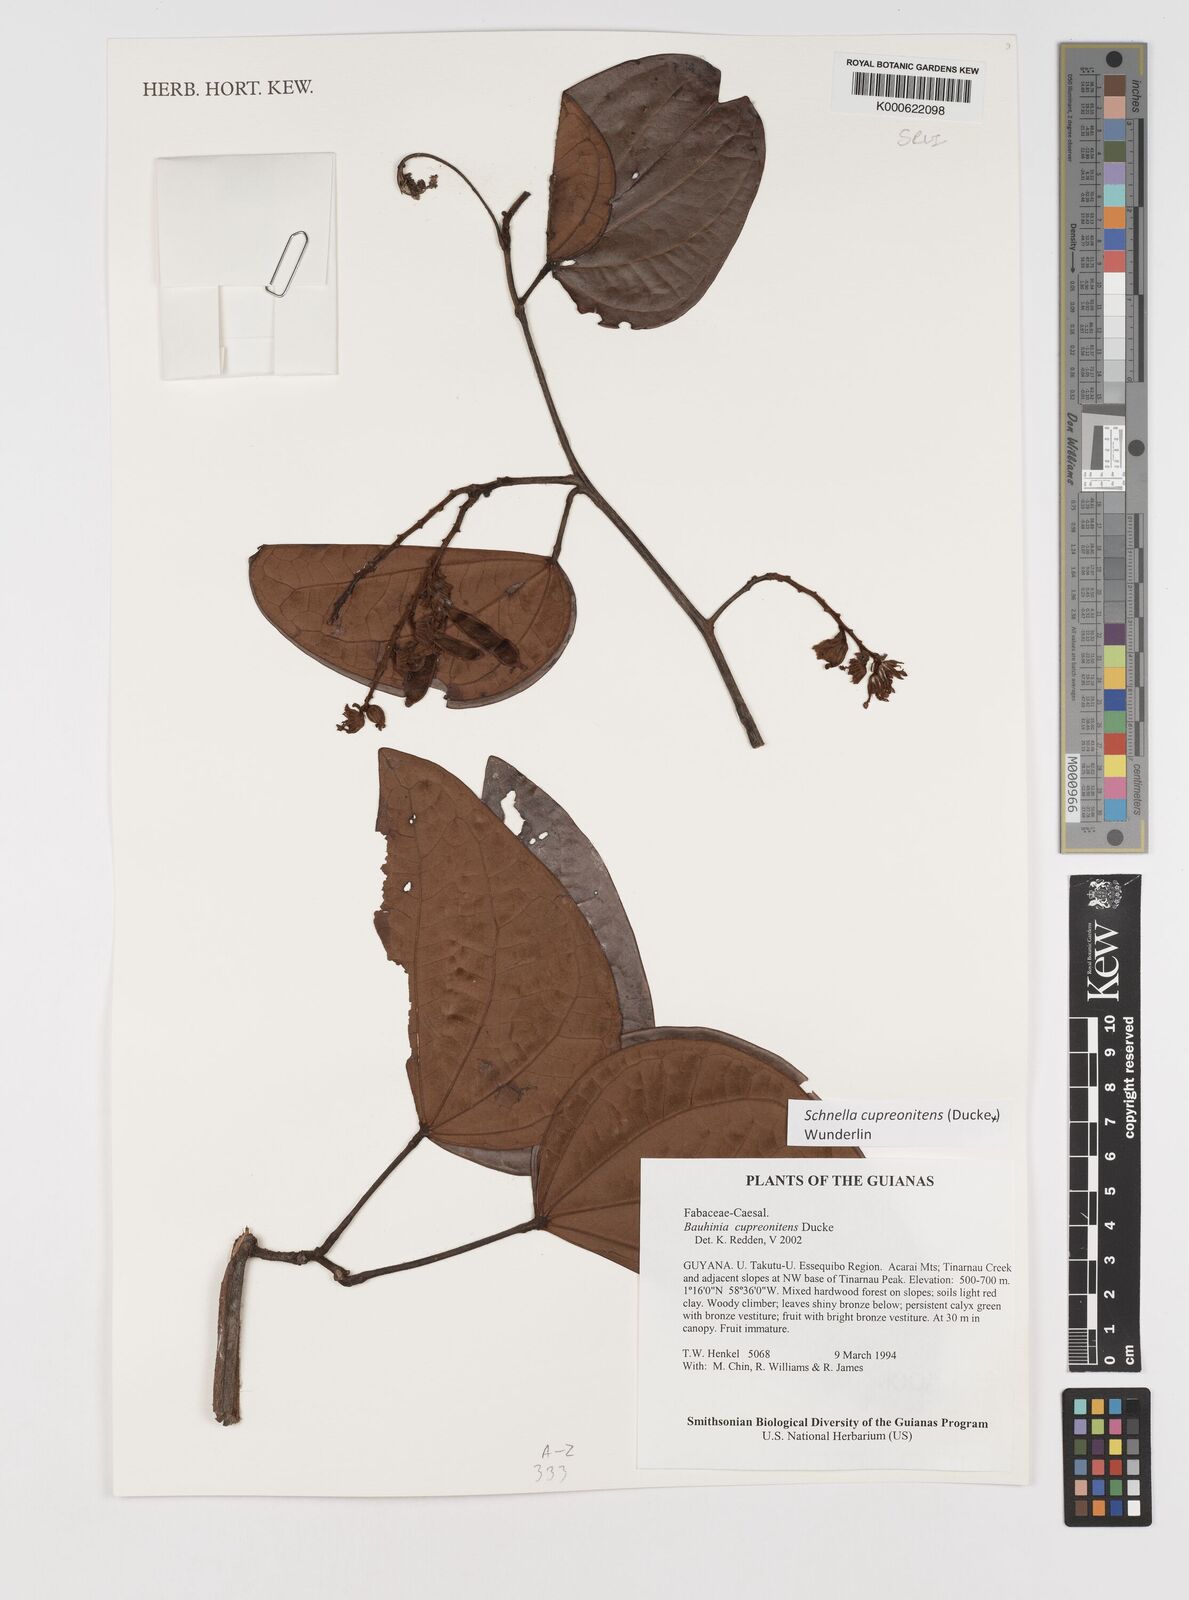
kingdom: Plantae
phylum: Tracheophyta
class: Magnoliopsida
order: Fabales
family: Fabaceae
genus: Schnella
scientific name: Schnella cupreonitens
